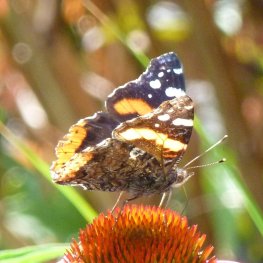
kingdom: Animalia
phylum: Arthropoda
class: Insecta
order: Lepidoptera
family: Nymphalidae
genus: Vanessa
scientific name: Vanessa atalanta
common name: Red Admiral
